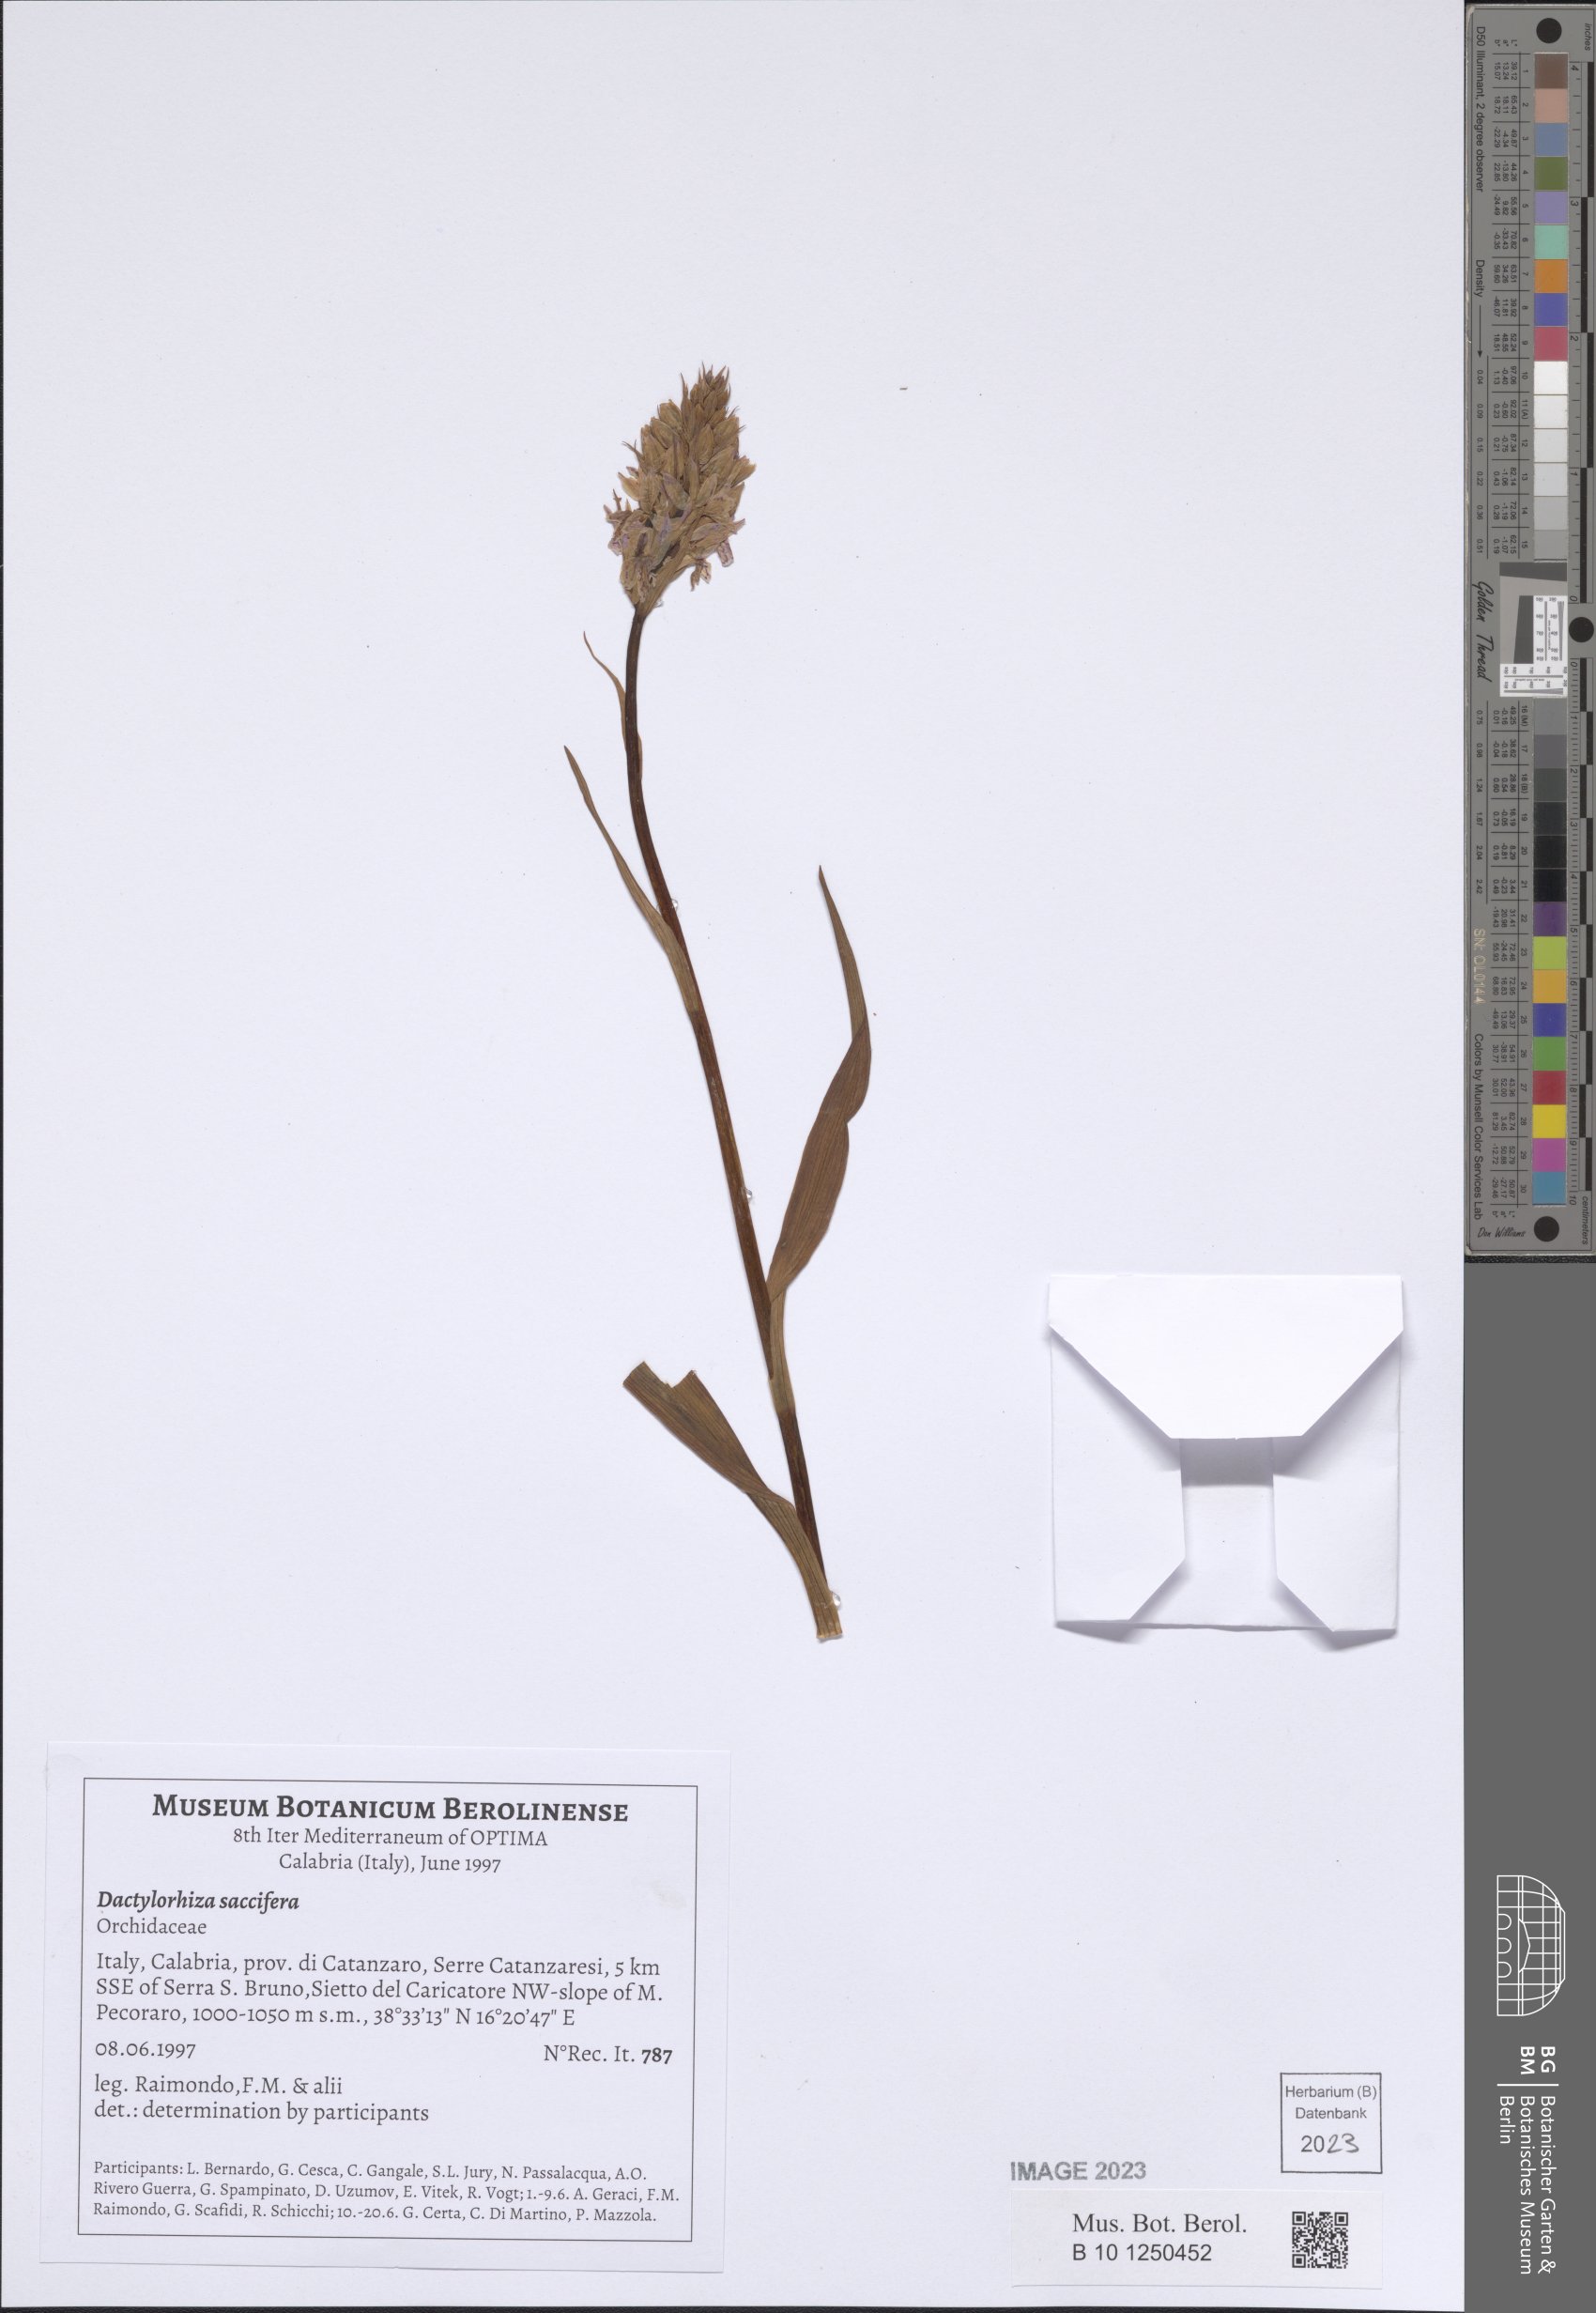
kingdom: Plantae
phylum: Tracheophyta
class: Liliopsida
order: Asparagales
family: Orchidaceae
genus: Dactylorhiza
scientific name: Dactylorhiza maculata
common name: Heath spotted-orchid
